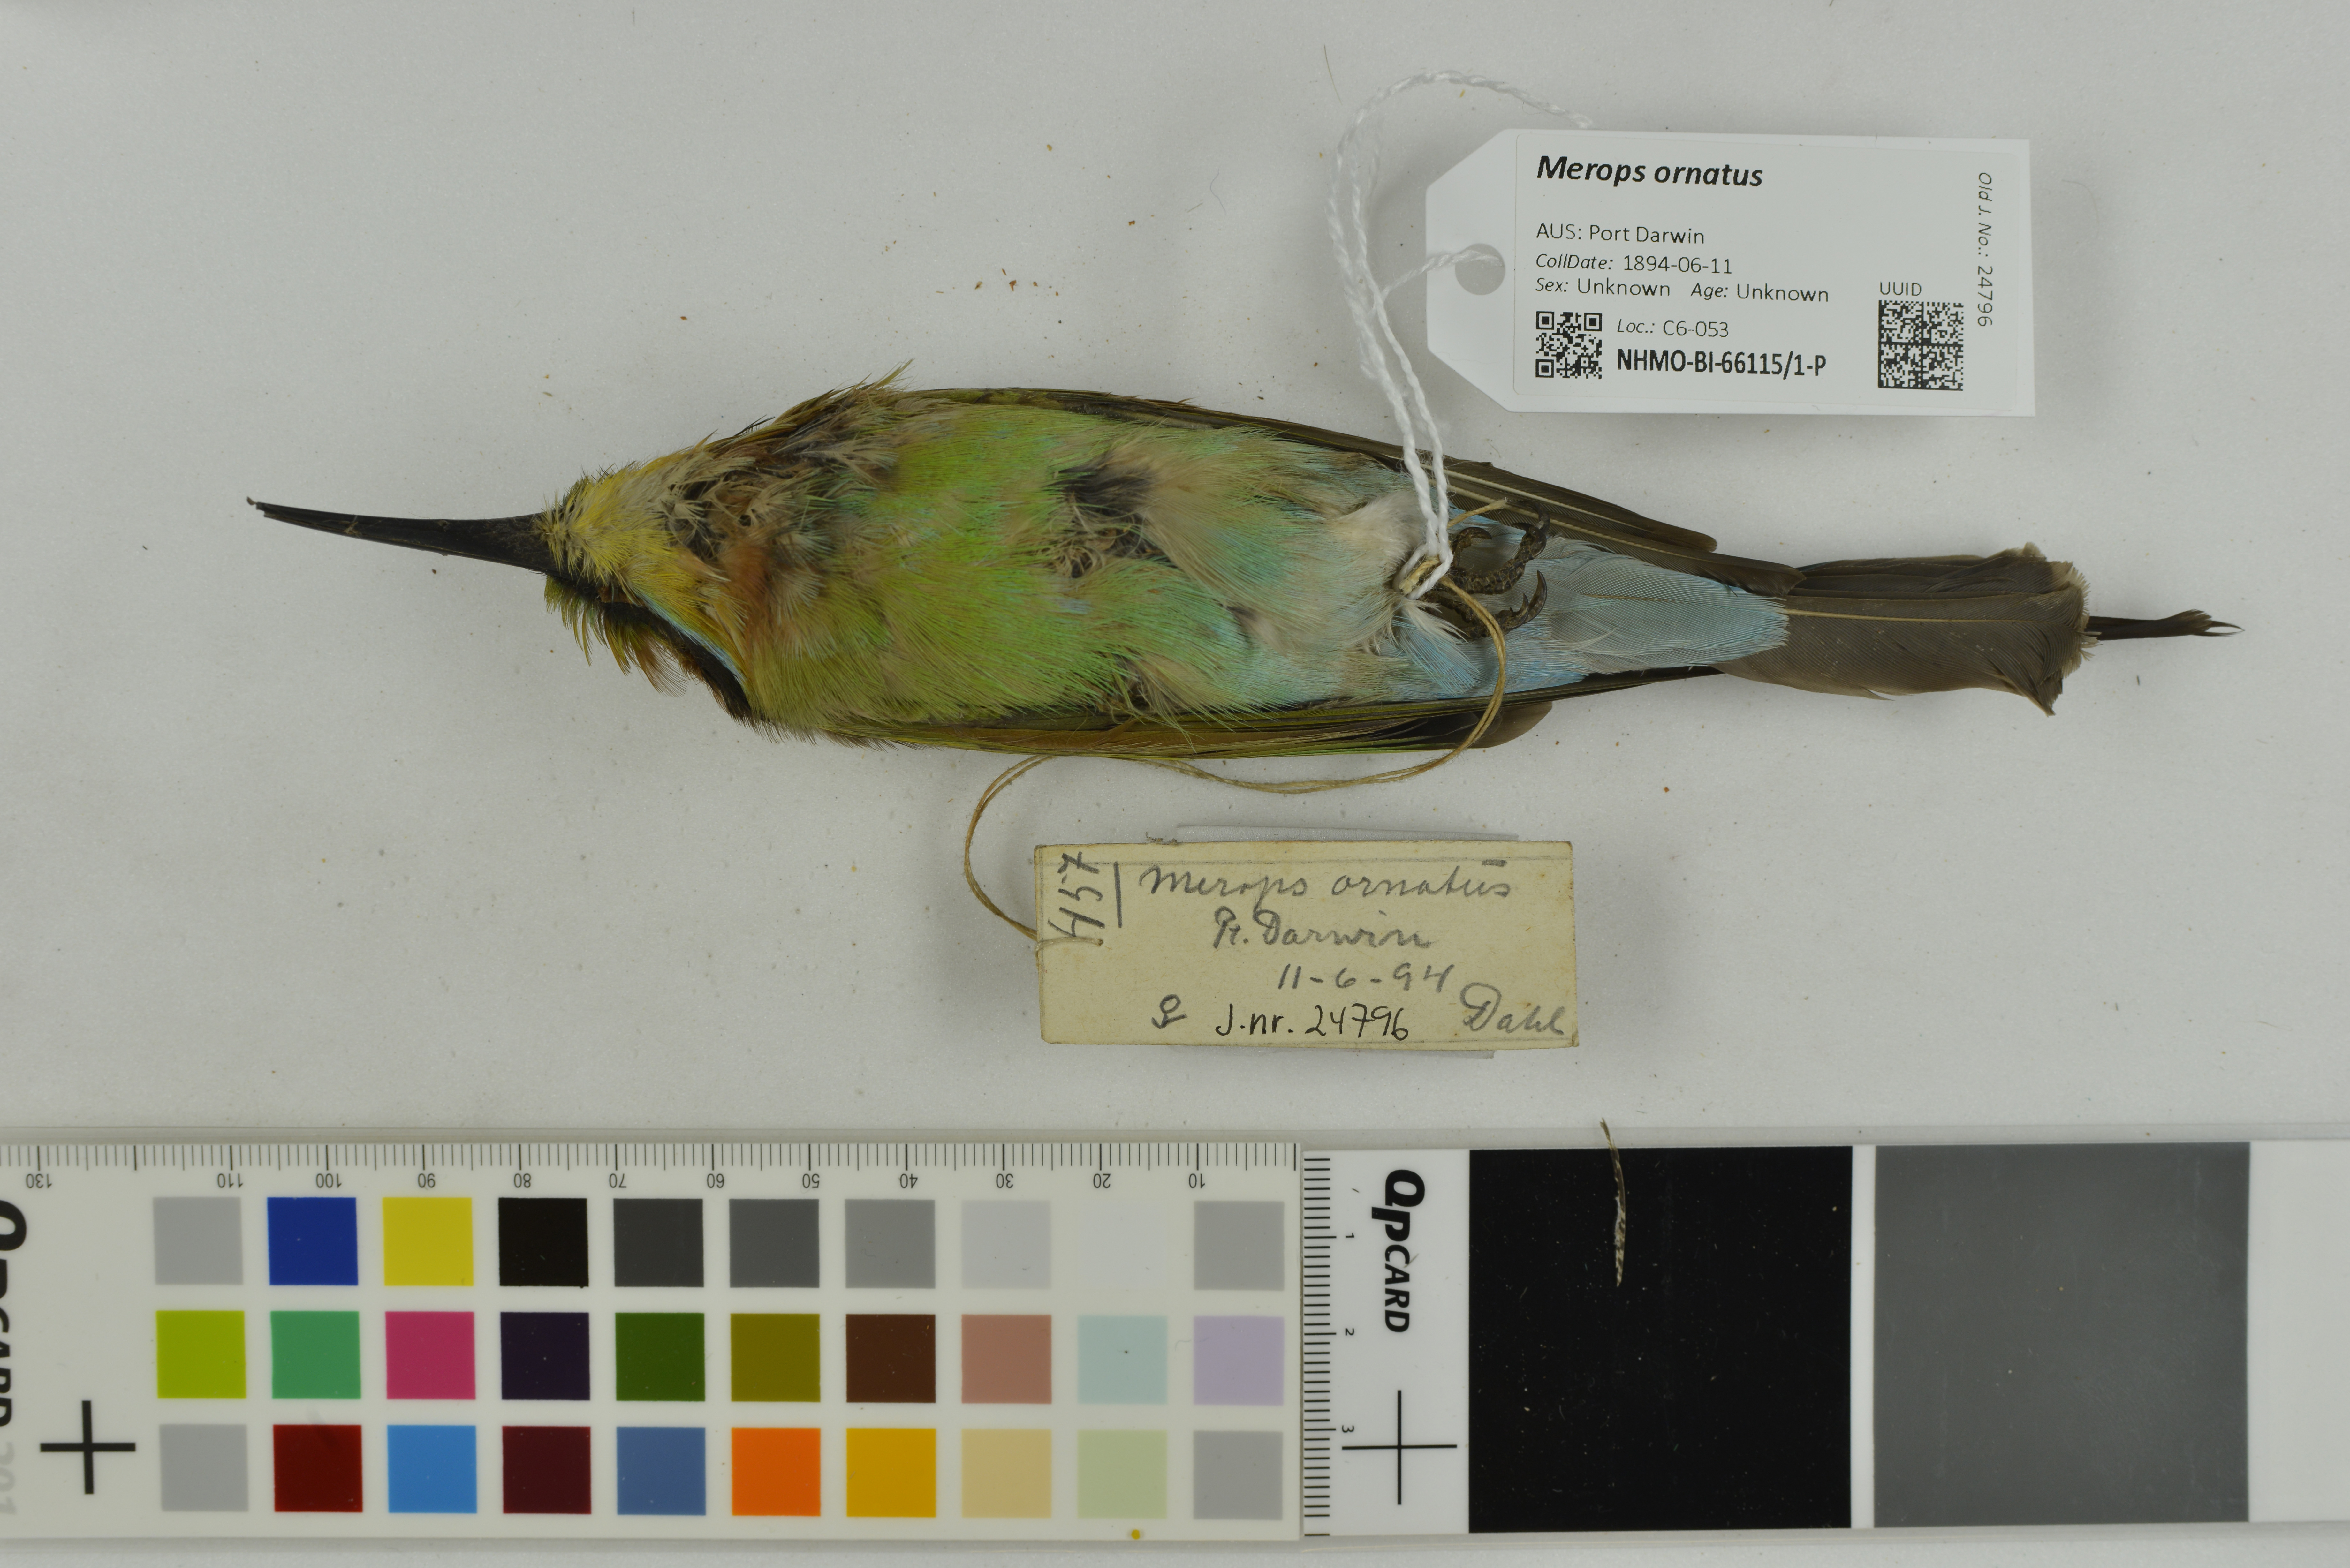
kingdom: Animalia
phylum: Chordata
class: Aves
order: Coraciiformes
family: Meropidae
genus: Merops
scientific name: Merops ornatus
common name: Rainbow bee-eater
